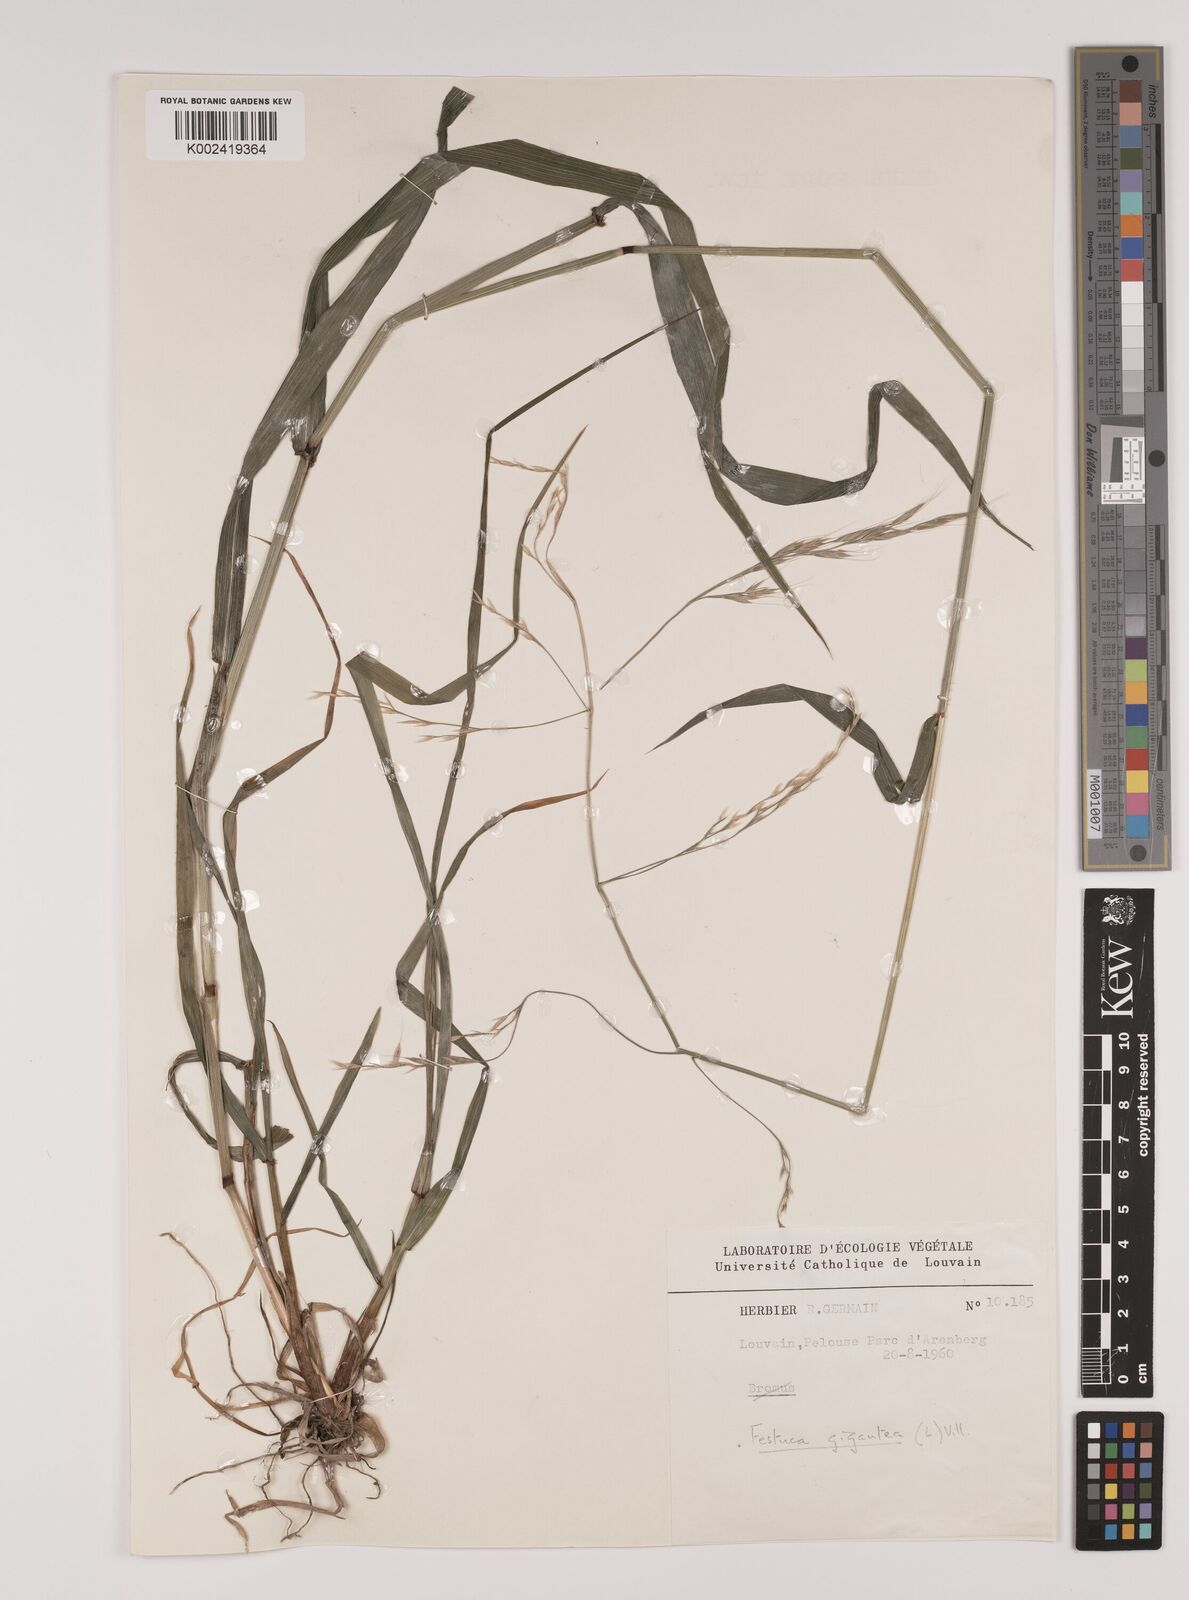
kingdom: Plantae
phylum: Tracheophyta
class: Liliopsida
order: Poales
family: Poaceae
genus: Lolium
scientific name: Lolium giganteum
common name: Giant fescue
